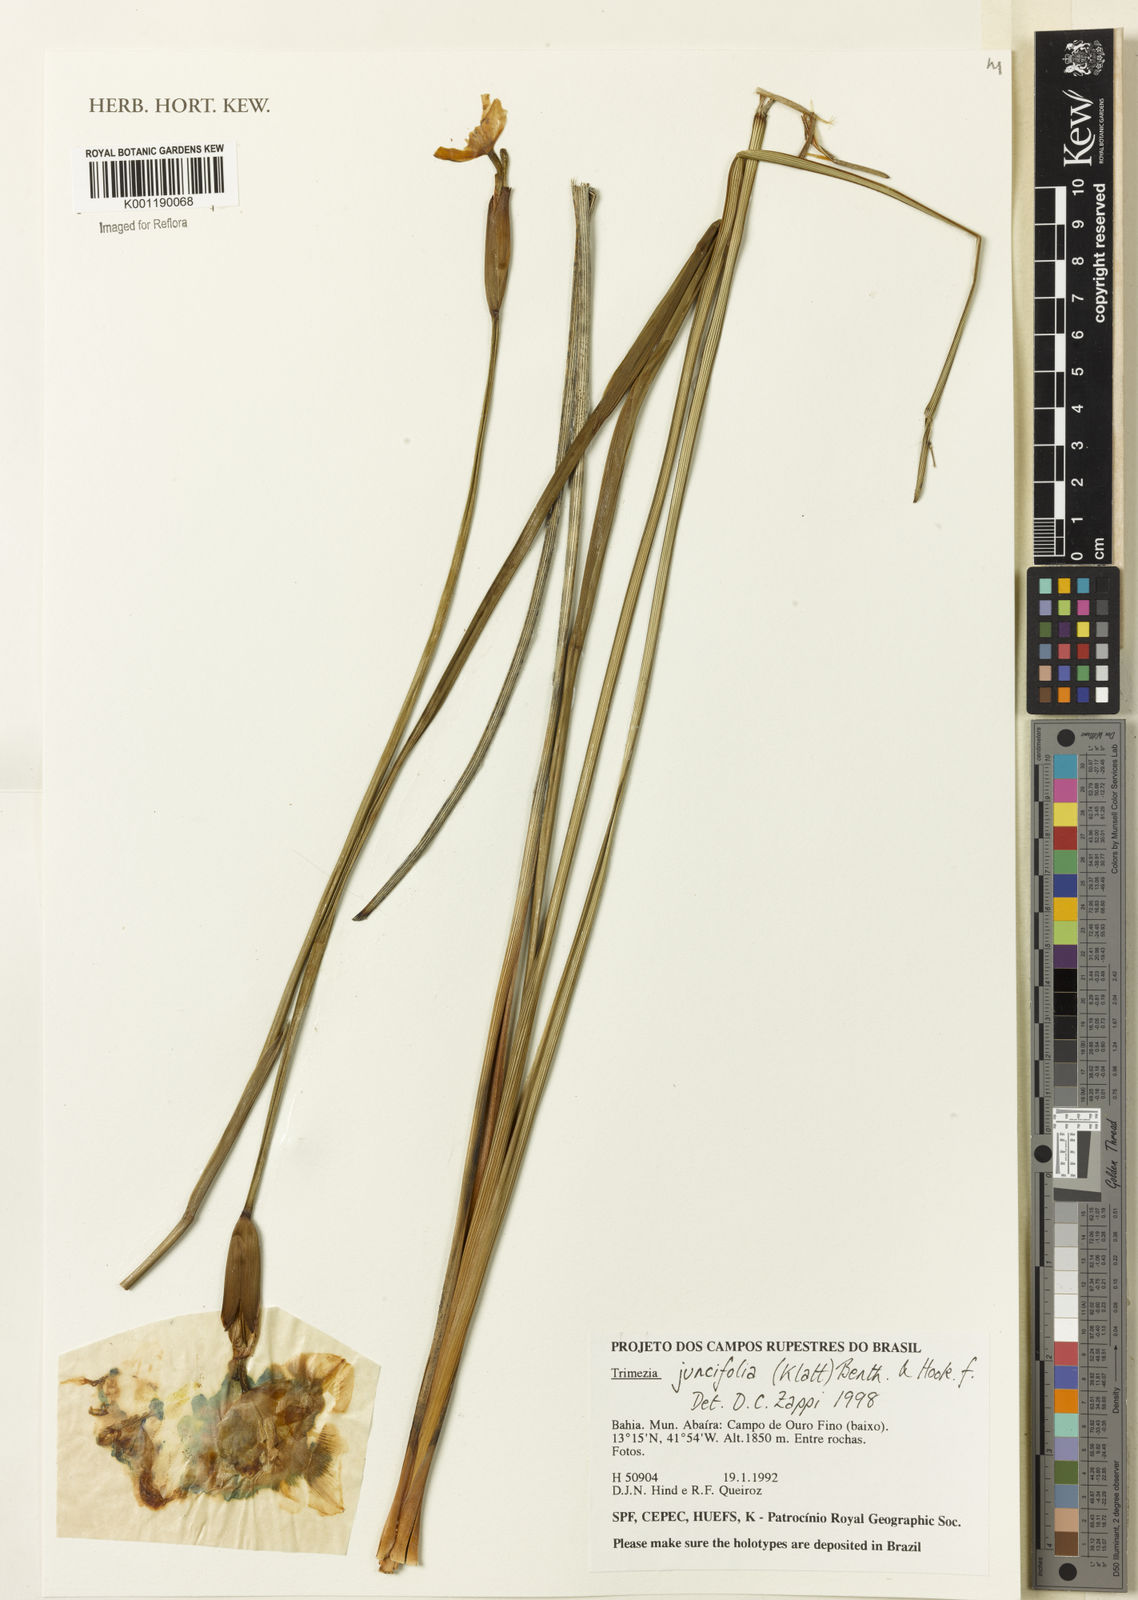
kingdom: Plantae
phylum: Tracheophyta
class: Liliopsida
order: Asparagales
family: Iridaceae
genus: Trimezia
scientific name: Trimezia juncifolia
